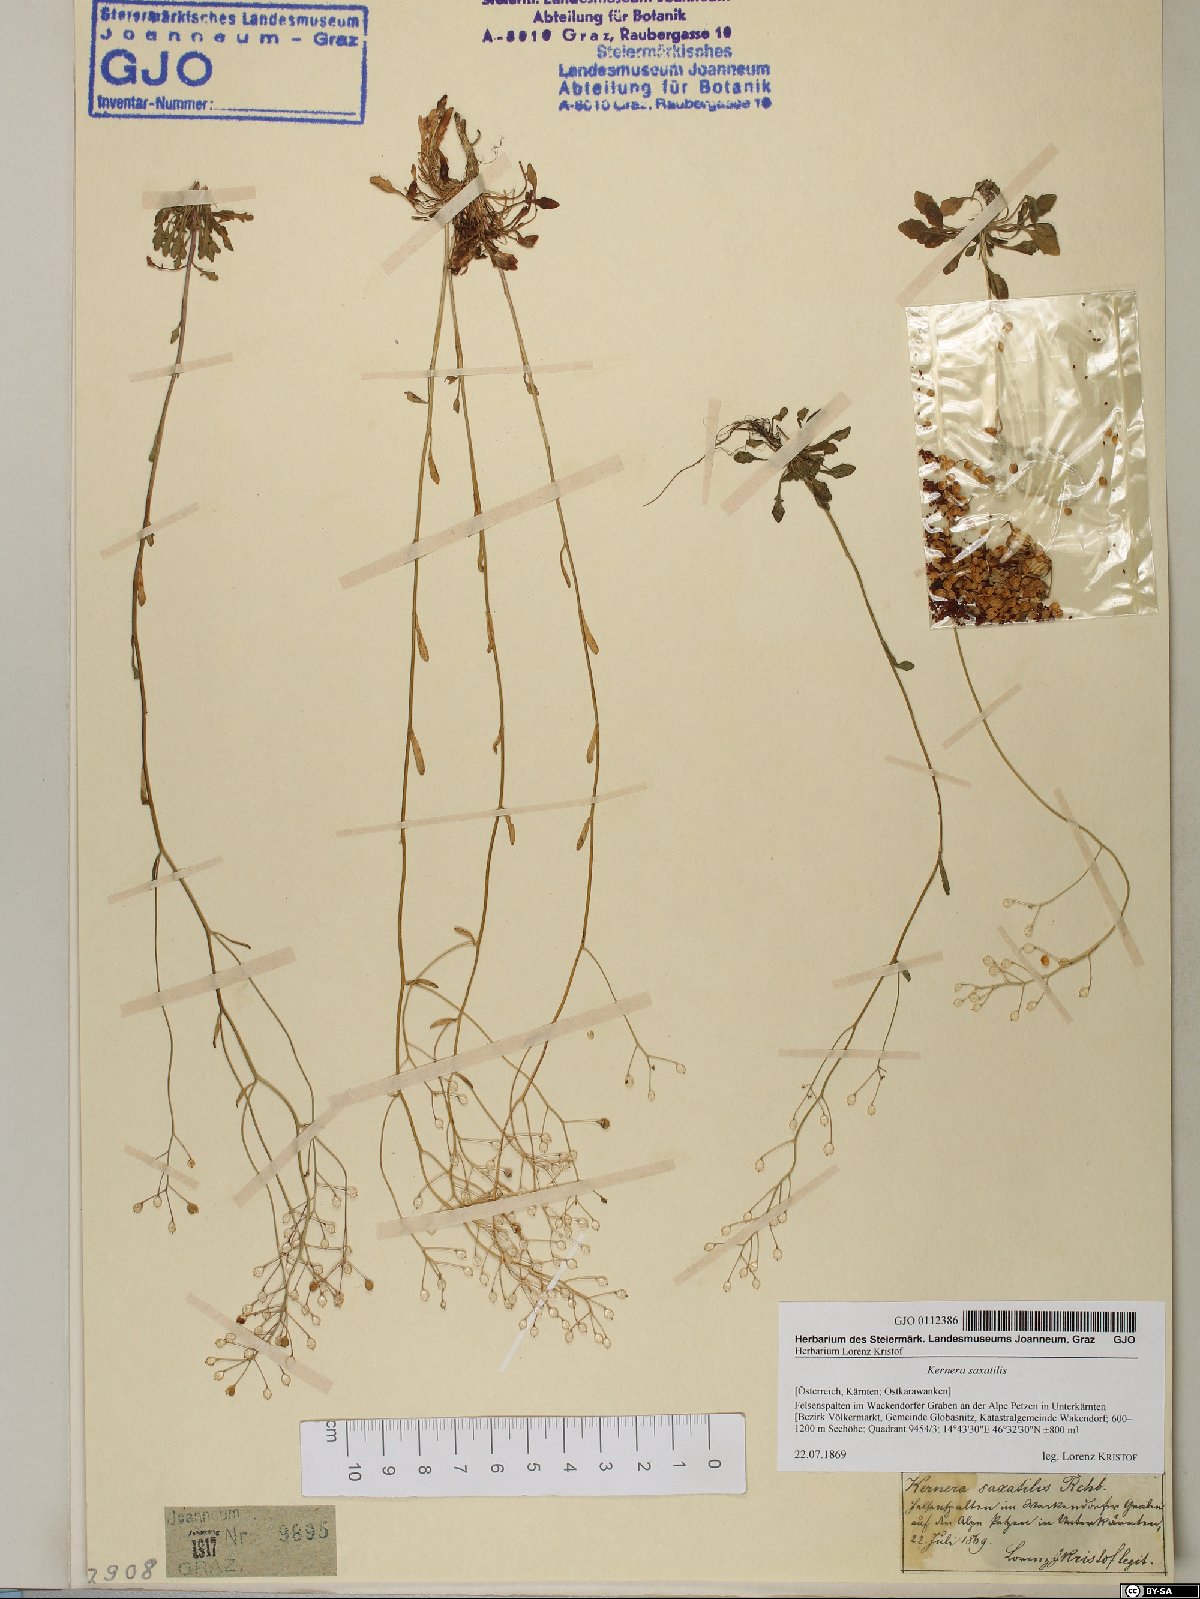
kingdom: Plantae
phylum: Tracheophyta
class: Magnoliopsida
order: Brassicales
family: Brassicaceae
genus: Kernera
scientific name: Kernera saxatilis
